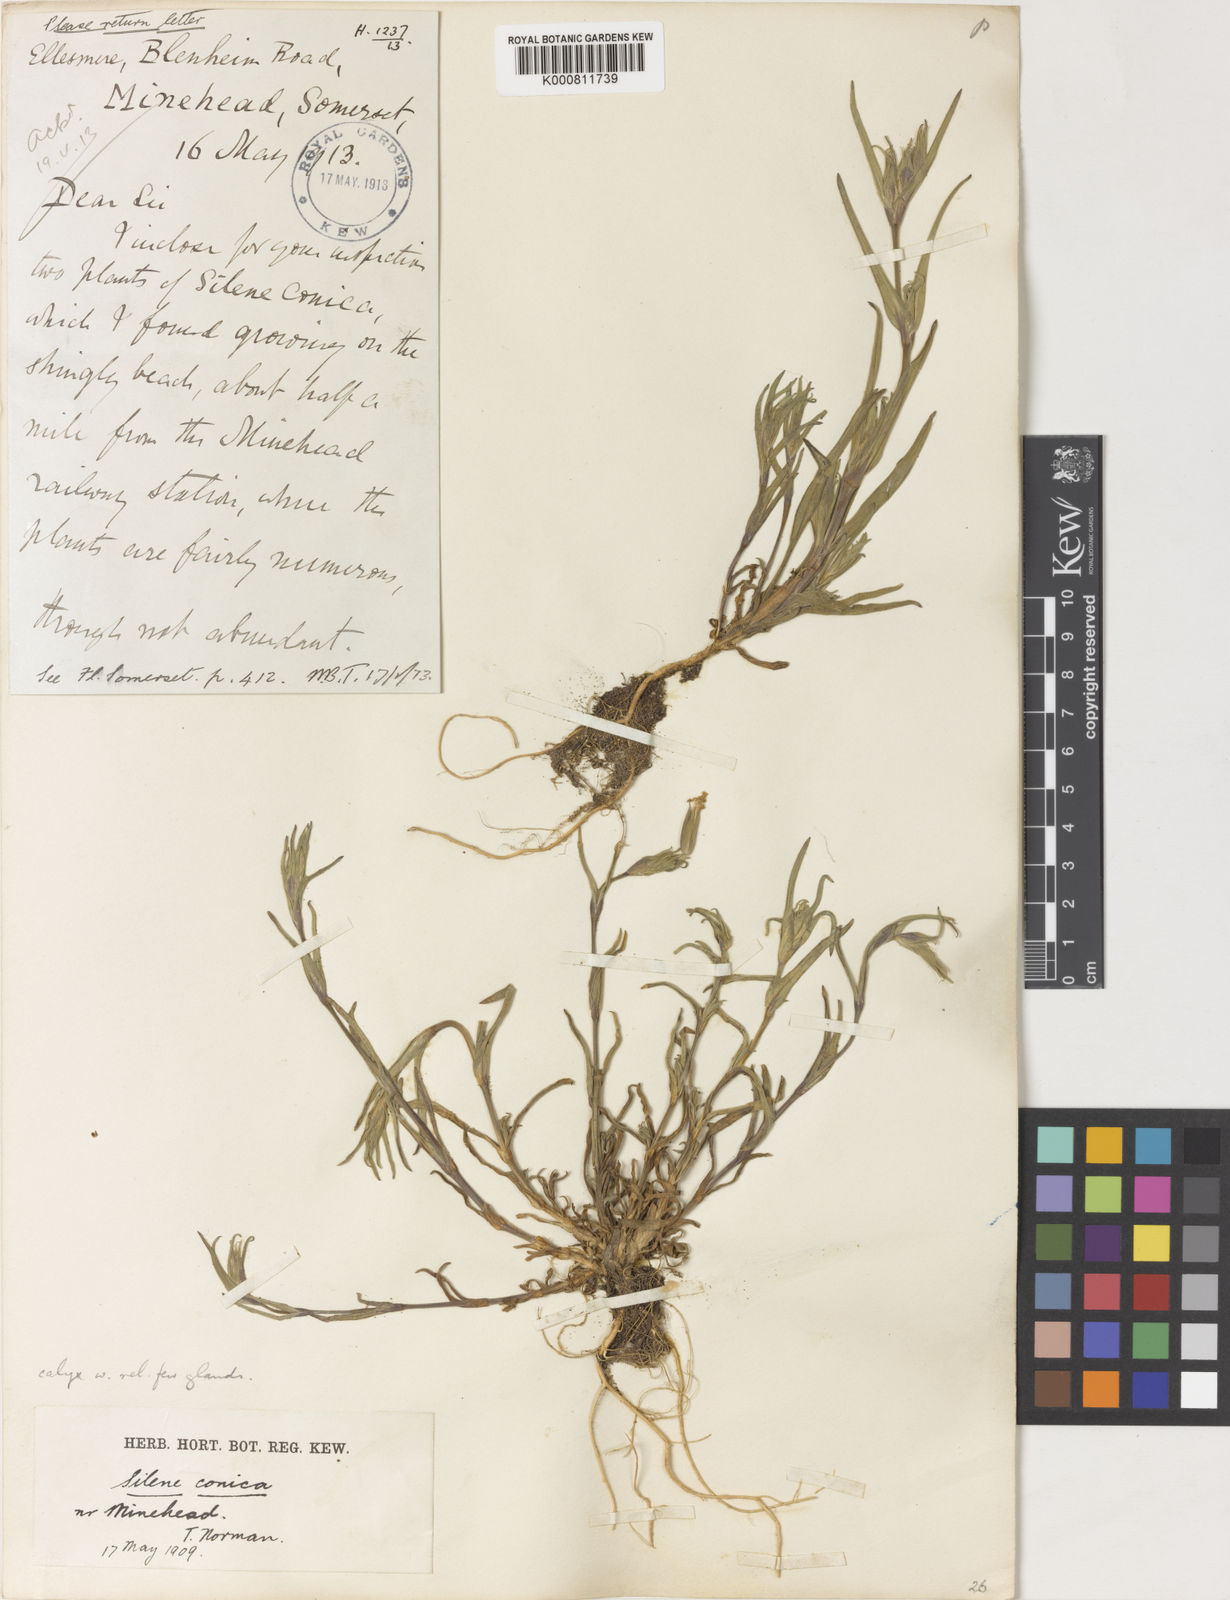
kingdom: Plantae
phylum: Tracheophyta
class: Magnoliopsida
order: Caryophyllales
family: Caryophyllaceae
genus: Silene
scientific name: Silene conica
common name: Sand catchfly
